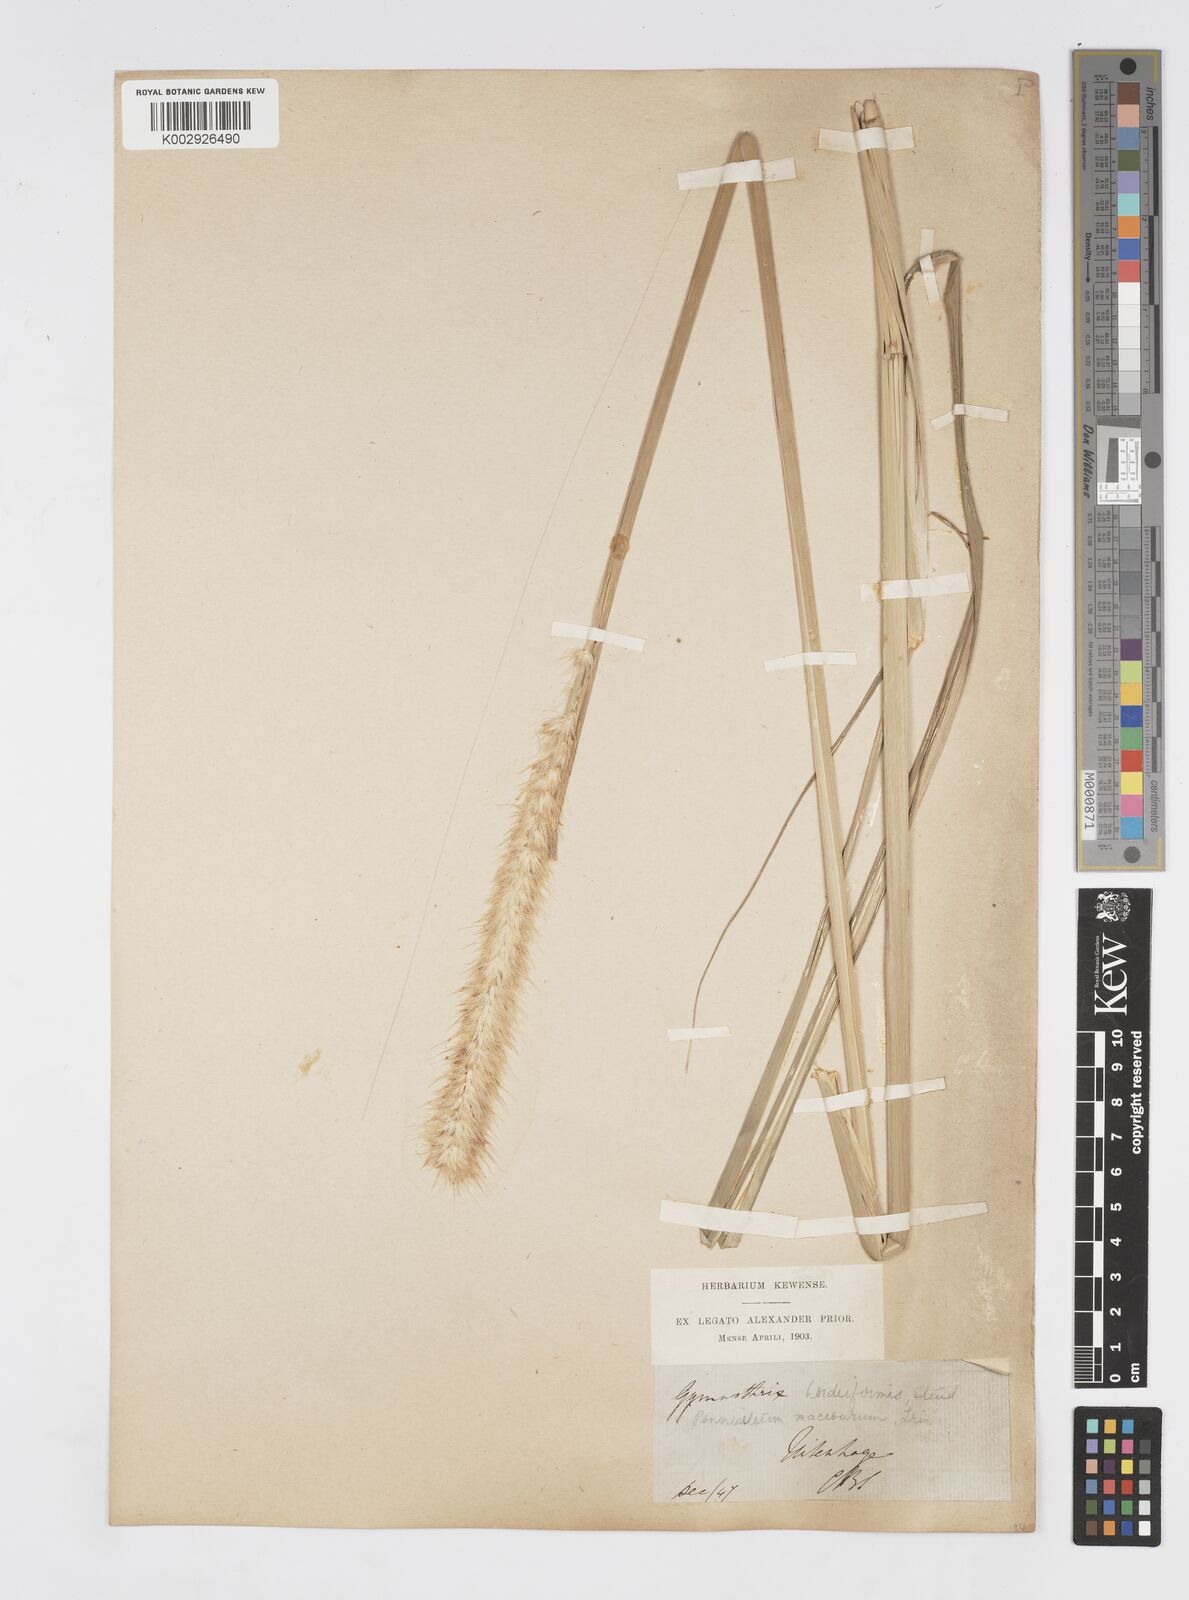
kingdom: Plantae
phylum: Tracheophyta
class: Liliopsida
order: Poales
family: Poaceae
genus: Cenchrus
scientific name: Cenchrus caudatus
